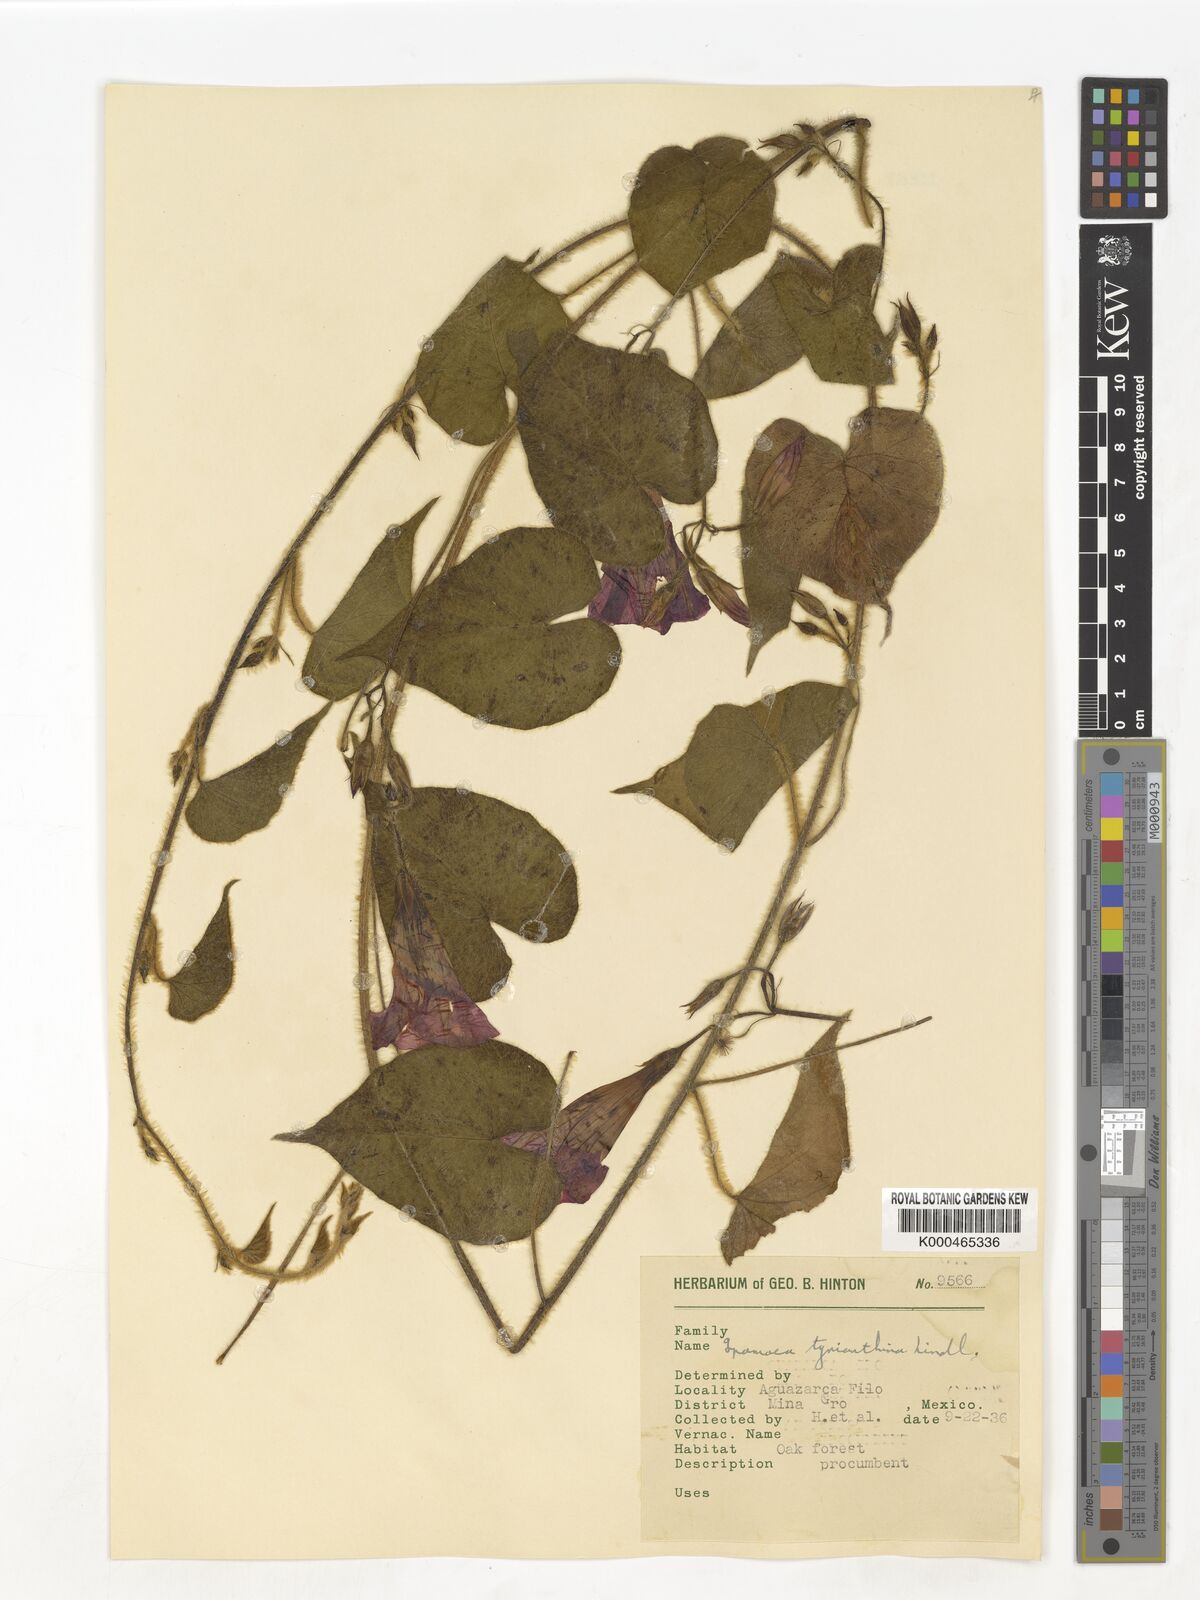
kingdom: Plantae
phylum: Tracheophyta
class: Magnoliopsida
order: Solanales
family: Convolvulaceae
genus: Ipomoea
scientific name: Ipomoea orizabensis
